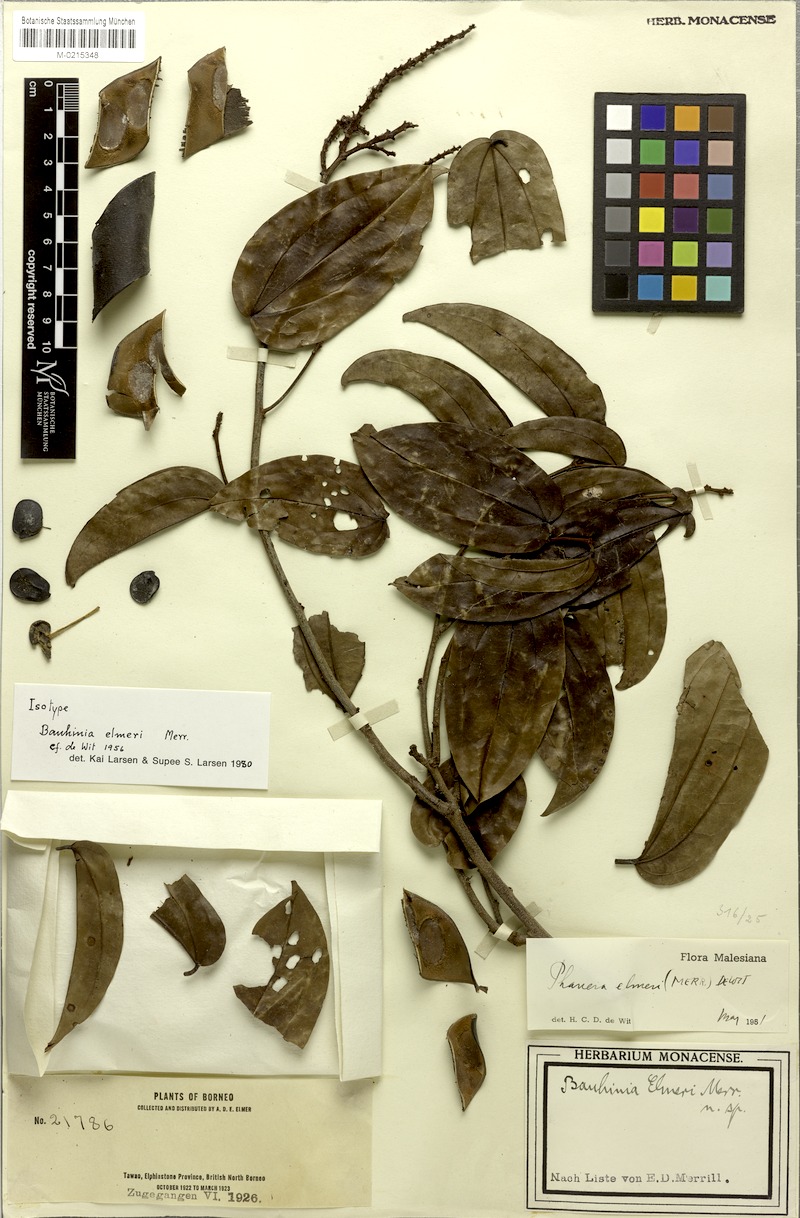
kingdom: Plantae
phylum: Tracheophyta
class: Magnoliopsida
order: Fabales
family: Fabaceae
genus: Phanera
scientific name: Phanera elmeri
